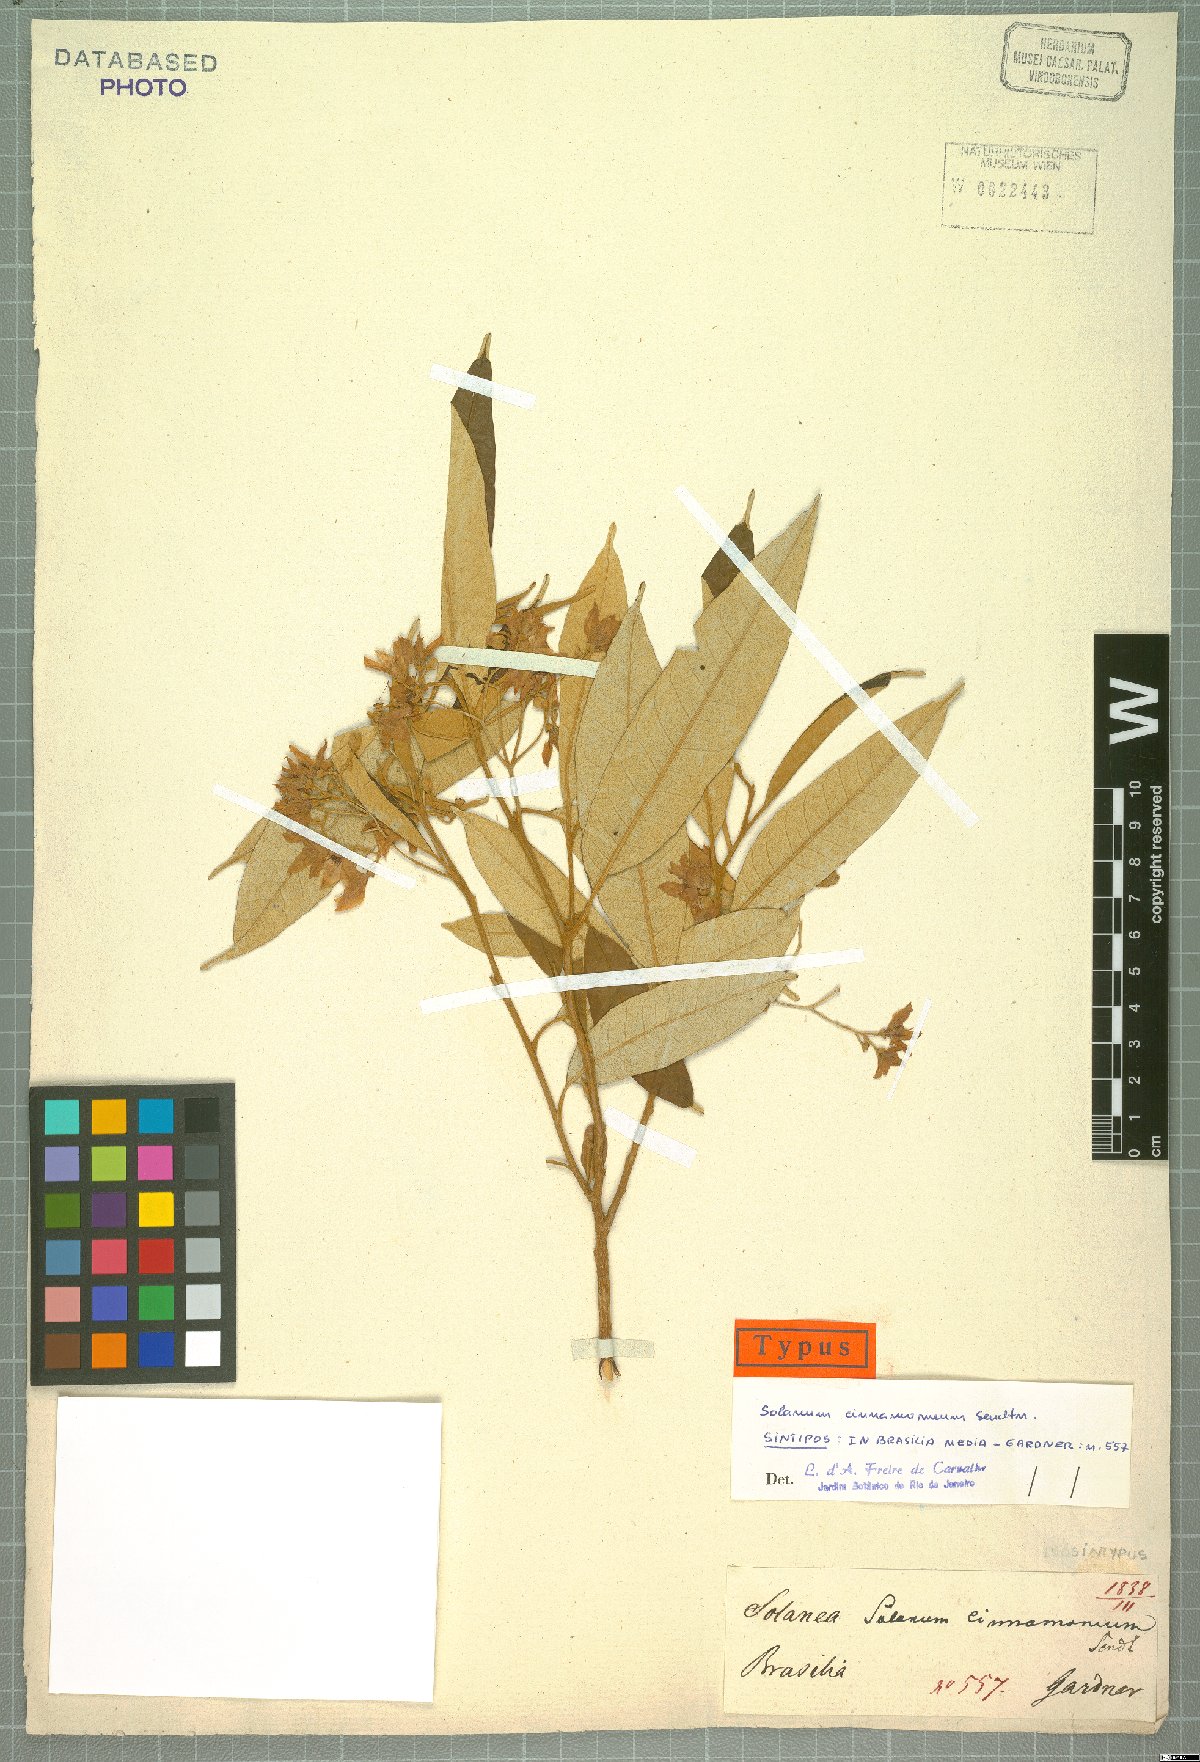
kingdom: Plantae
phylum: Tracheophyta
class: Magnoliopsida
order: Solanales
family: Solanaceae
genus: Solanum
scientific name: Solanum cinnamomeum
